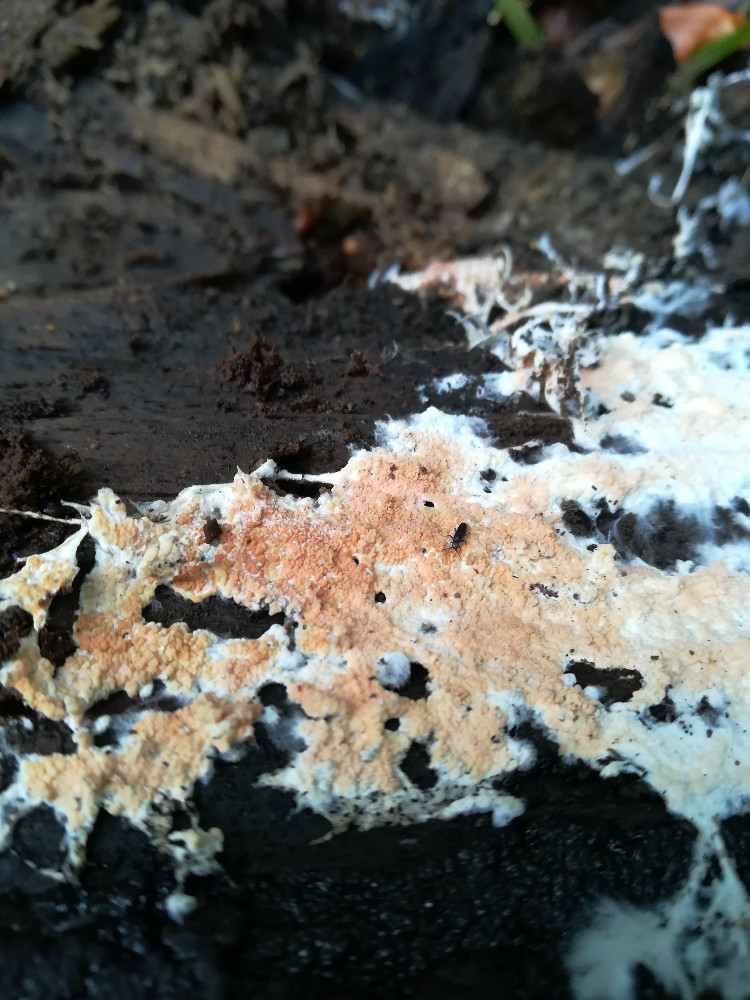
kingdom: Fungi
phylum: Basidiomycota
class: Agaricomycetes
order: Corticiales
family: Corticiaceae
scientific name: Corticiaceae
